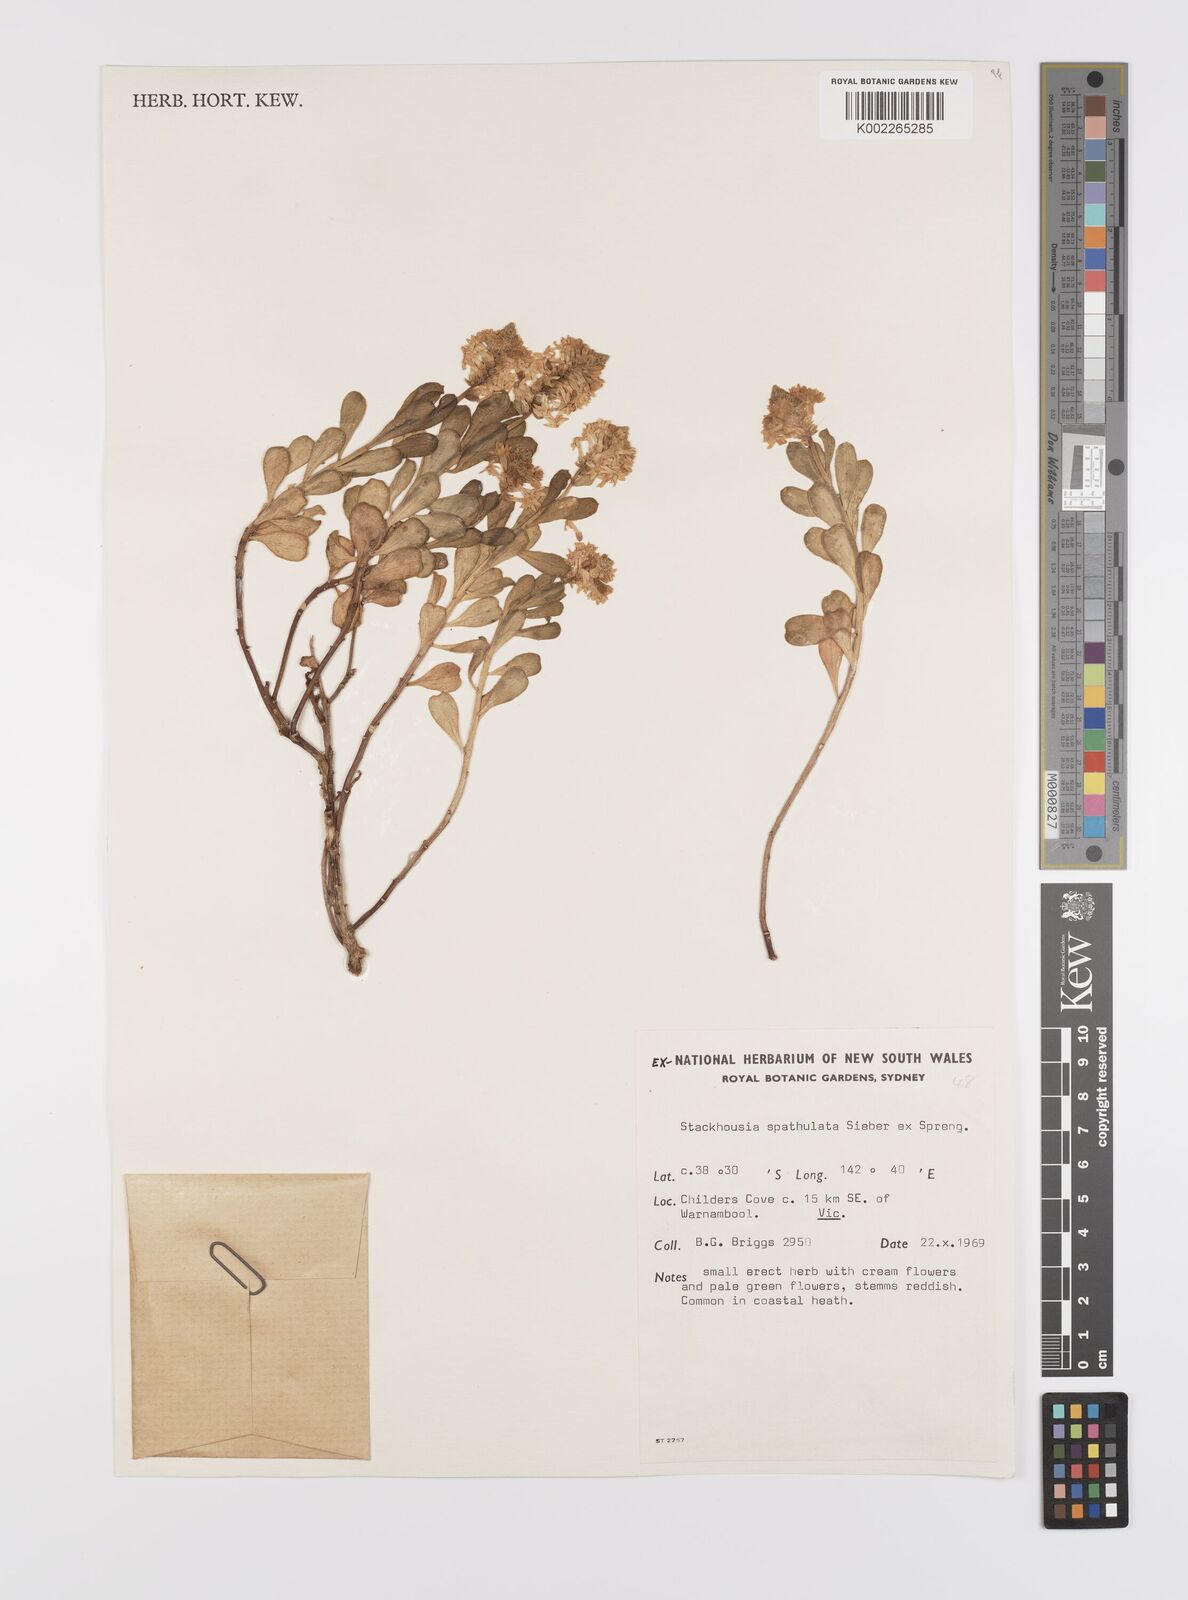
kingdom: Plantae
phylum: Tracheophyta
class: Magnoliopsida
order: Celastrales
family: Celastraceae
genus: Stackhousia
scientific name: Stackhousia spathulata
